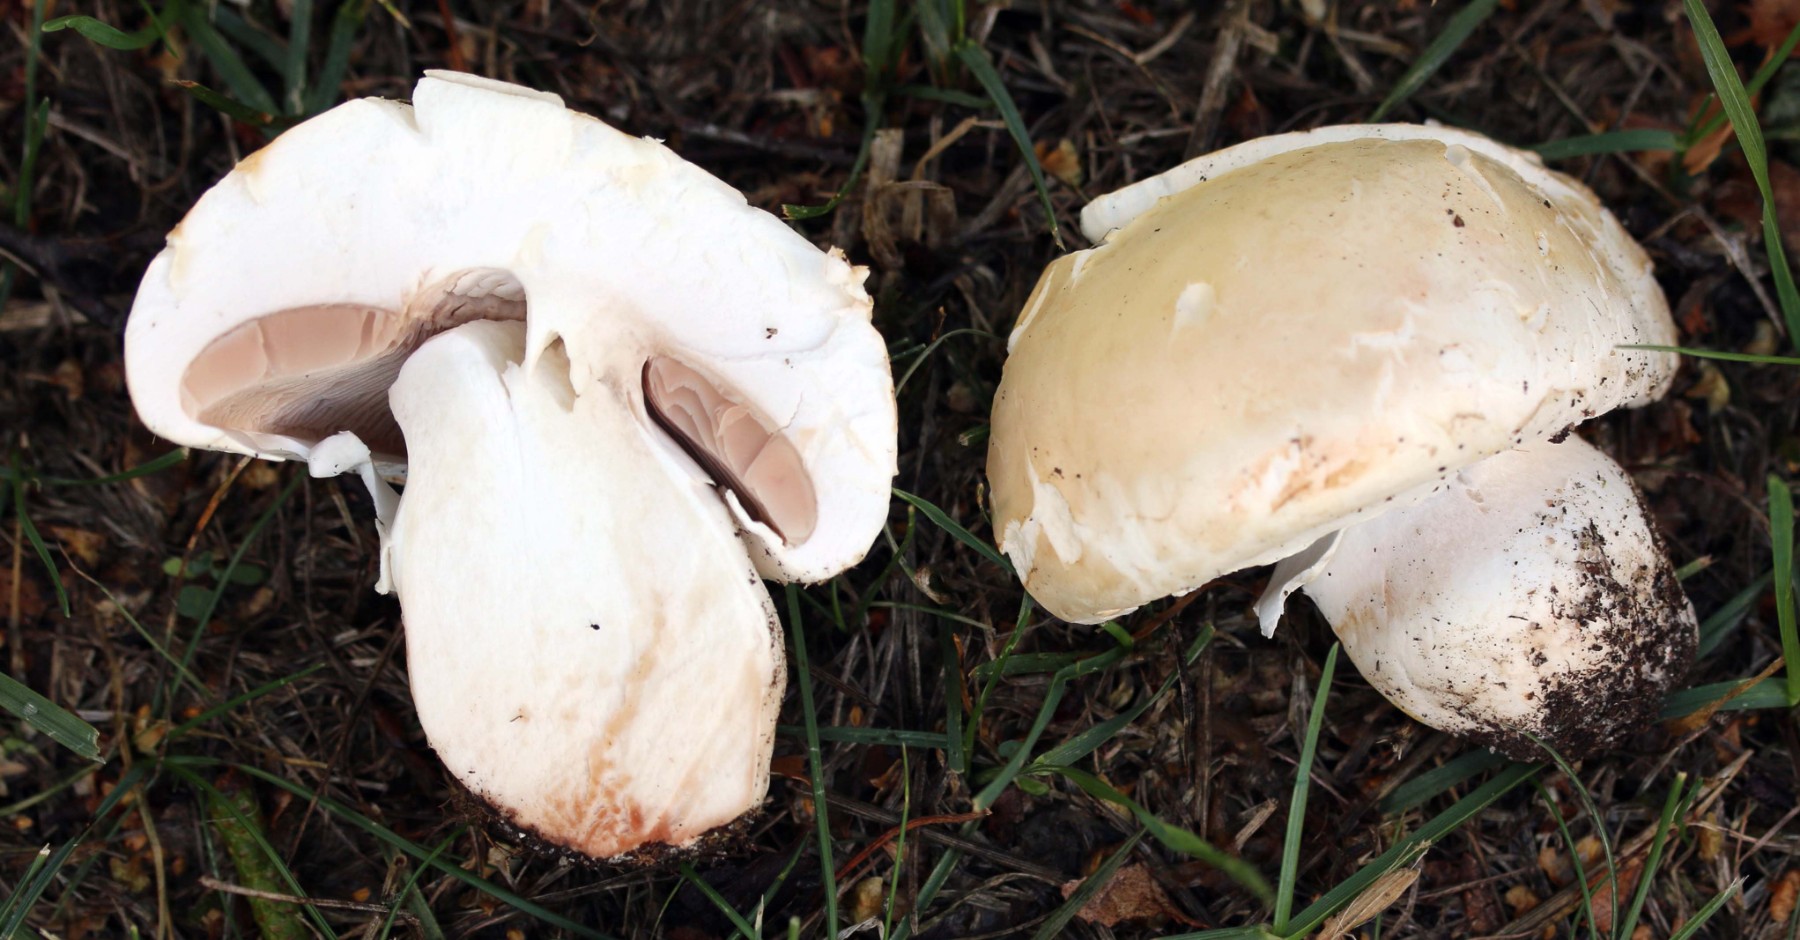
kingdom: Fungi
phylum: Basidiomycota
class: Agaricomycetes
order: Agaricales
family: Agaricaceae
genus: Agaricus
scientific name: Agaricus
